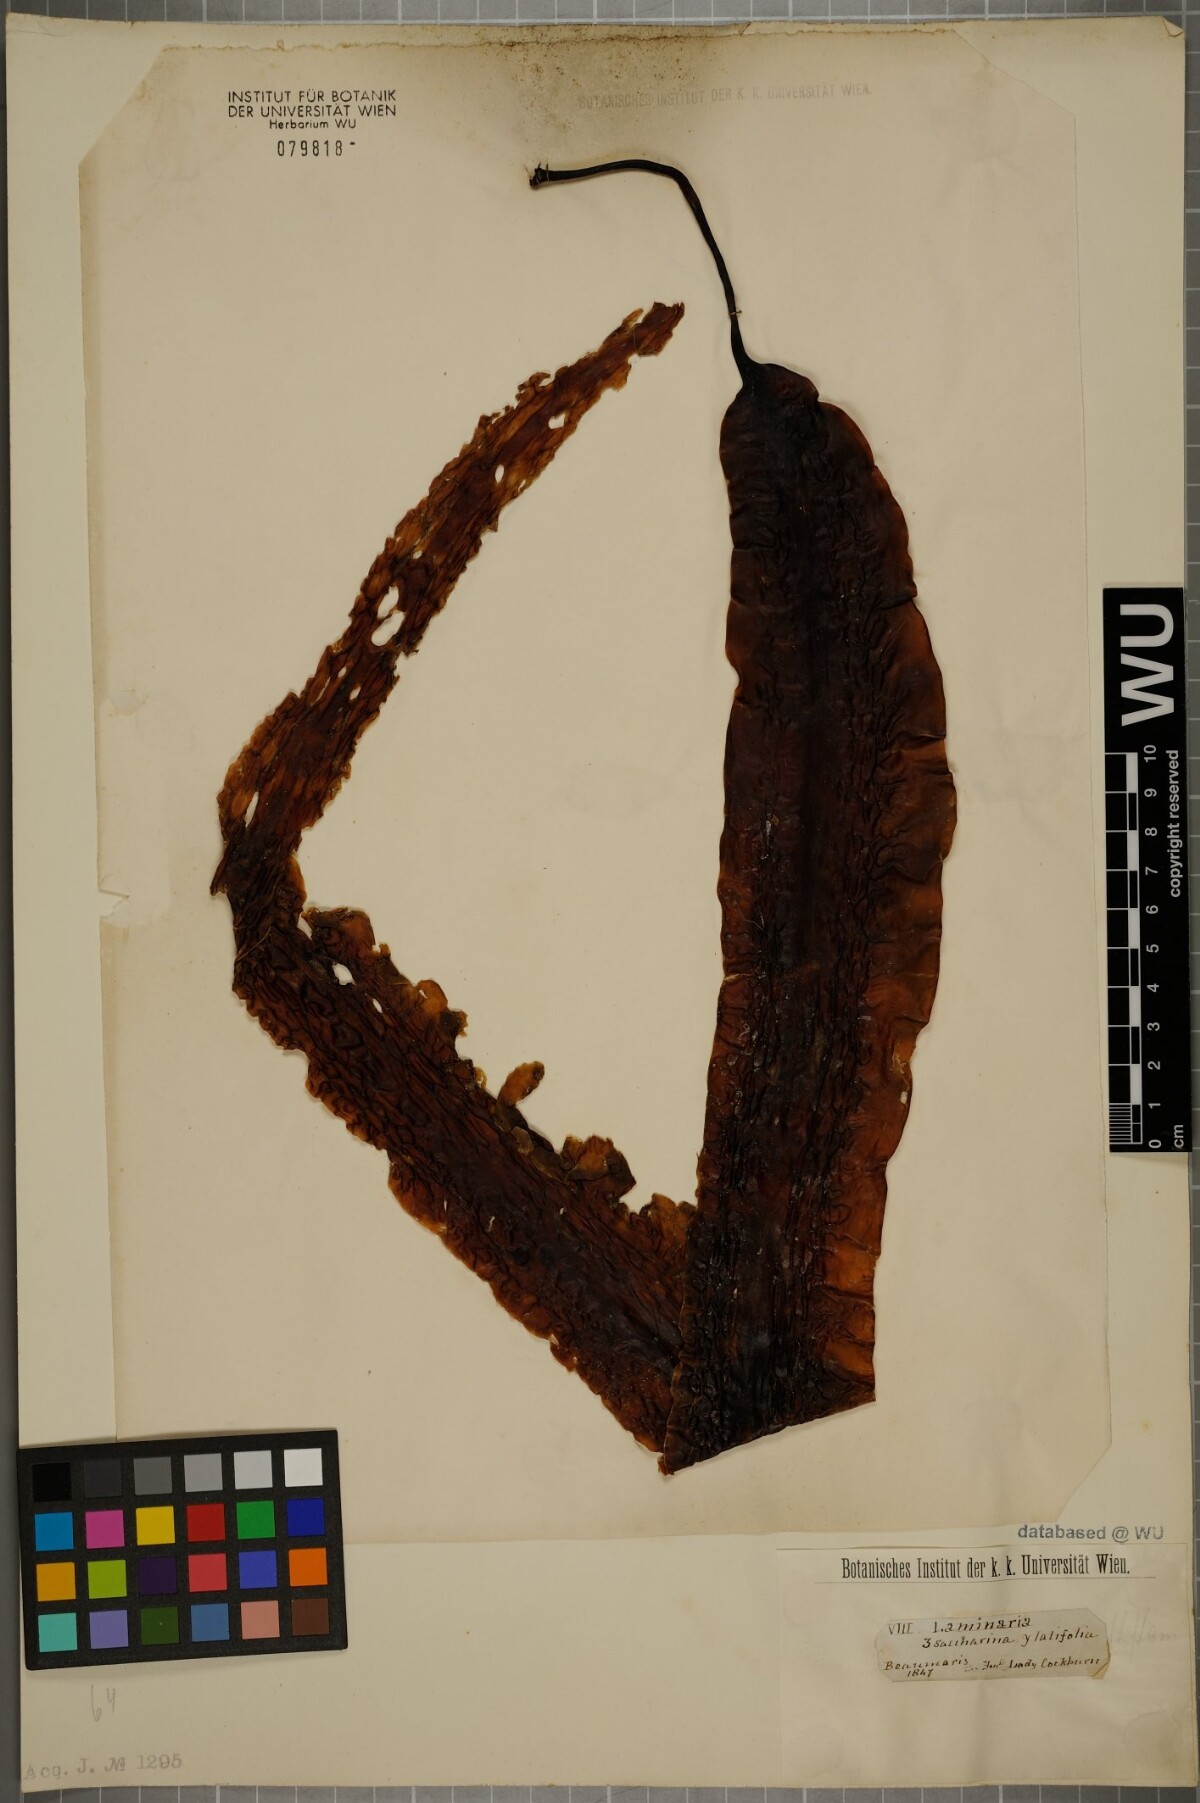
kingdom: Chromista
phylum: Ochrophyta
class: Phaeophyceae
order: Laminariales
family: Laminariaceae
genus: Saccharina
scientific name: Saccharina latissima
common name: Poor man's weather glass
